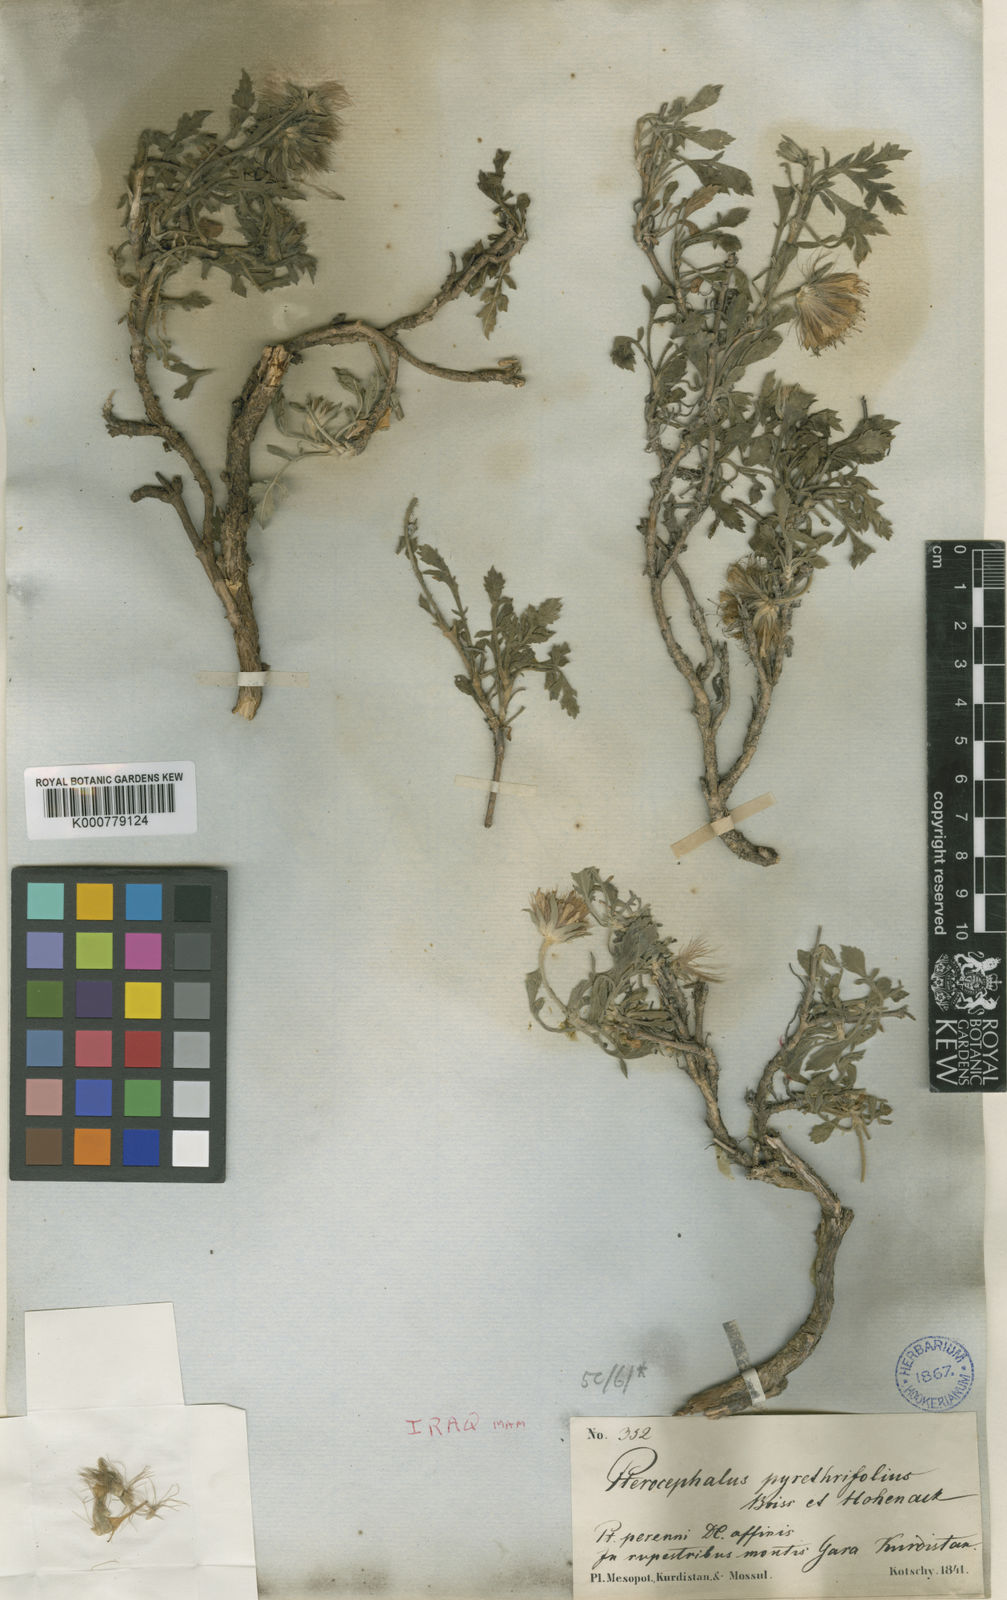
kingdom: Plantae
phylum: Tracheophyta
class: Magnoliopsida
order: Dipsacales
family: Caprifoliaceae
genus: Pterocephalus
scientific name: Pterocephalus pyrethrifolius
